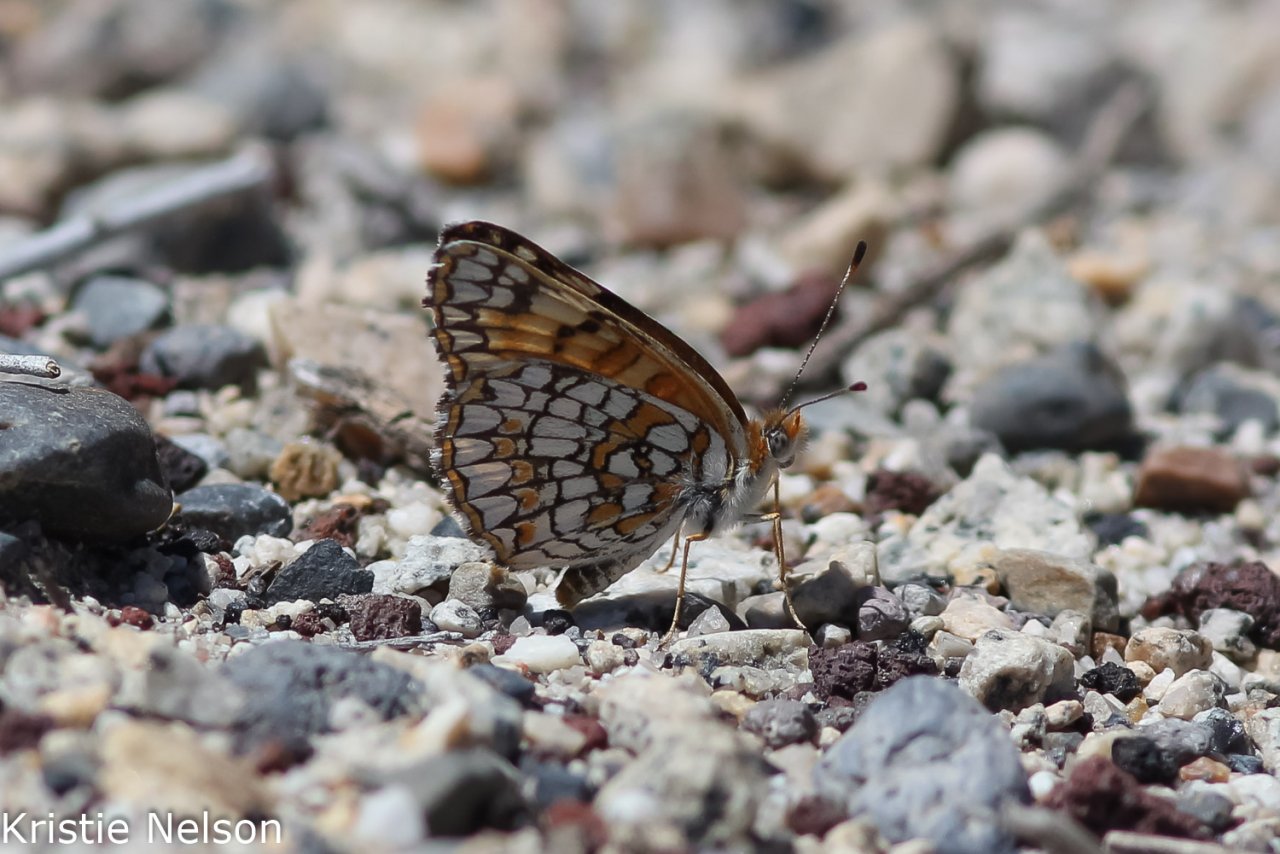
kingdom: Animalia
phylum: Arthropoda
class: Insecta
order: Lepidoptera
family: Nymphalidae
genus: Chlosyne
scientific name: Chlosyne acastus
